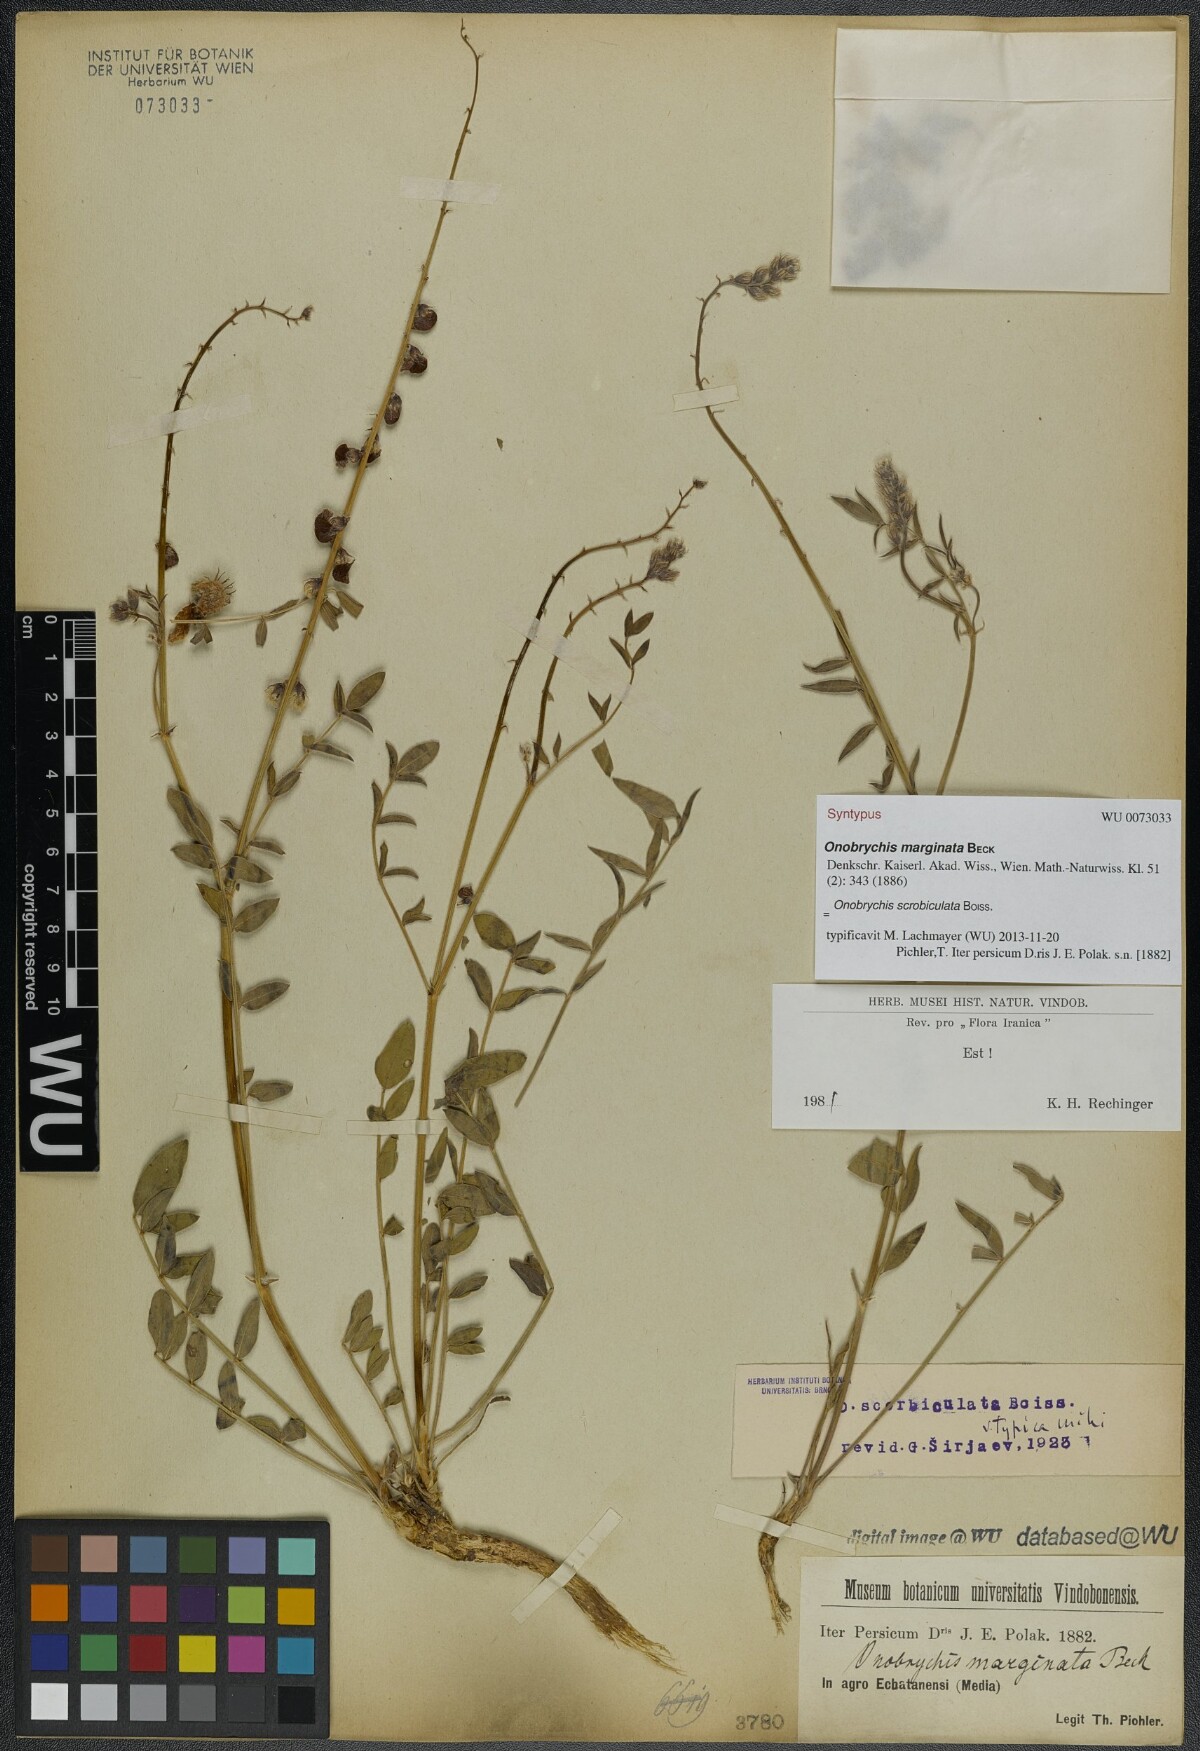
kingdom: Plantae
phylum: Tracheophyta
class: Magnoliopsida
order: Fabales
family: Fabaceae
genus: Onobrychis
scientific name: Onobrychis scrobiculata
